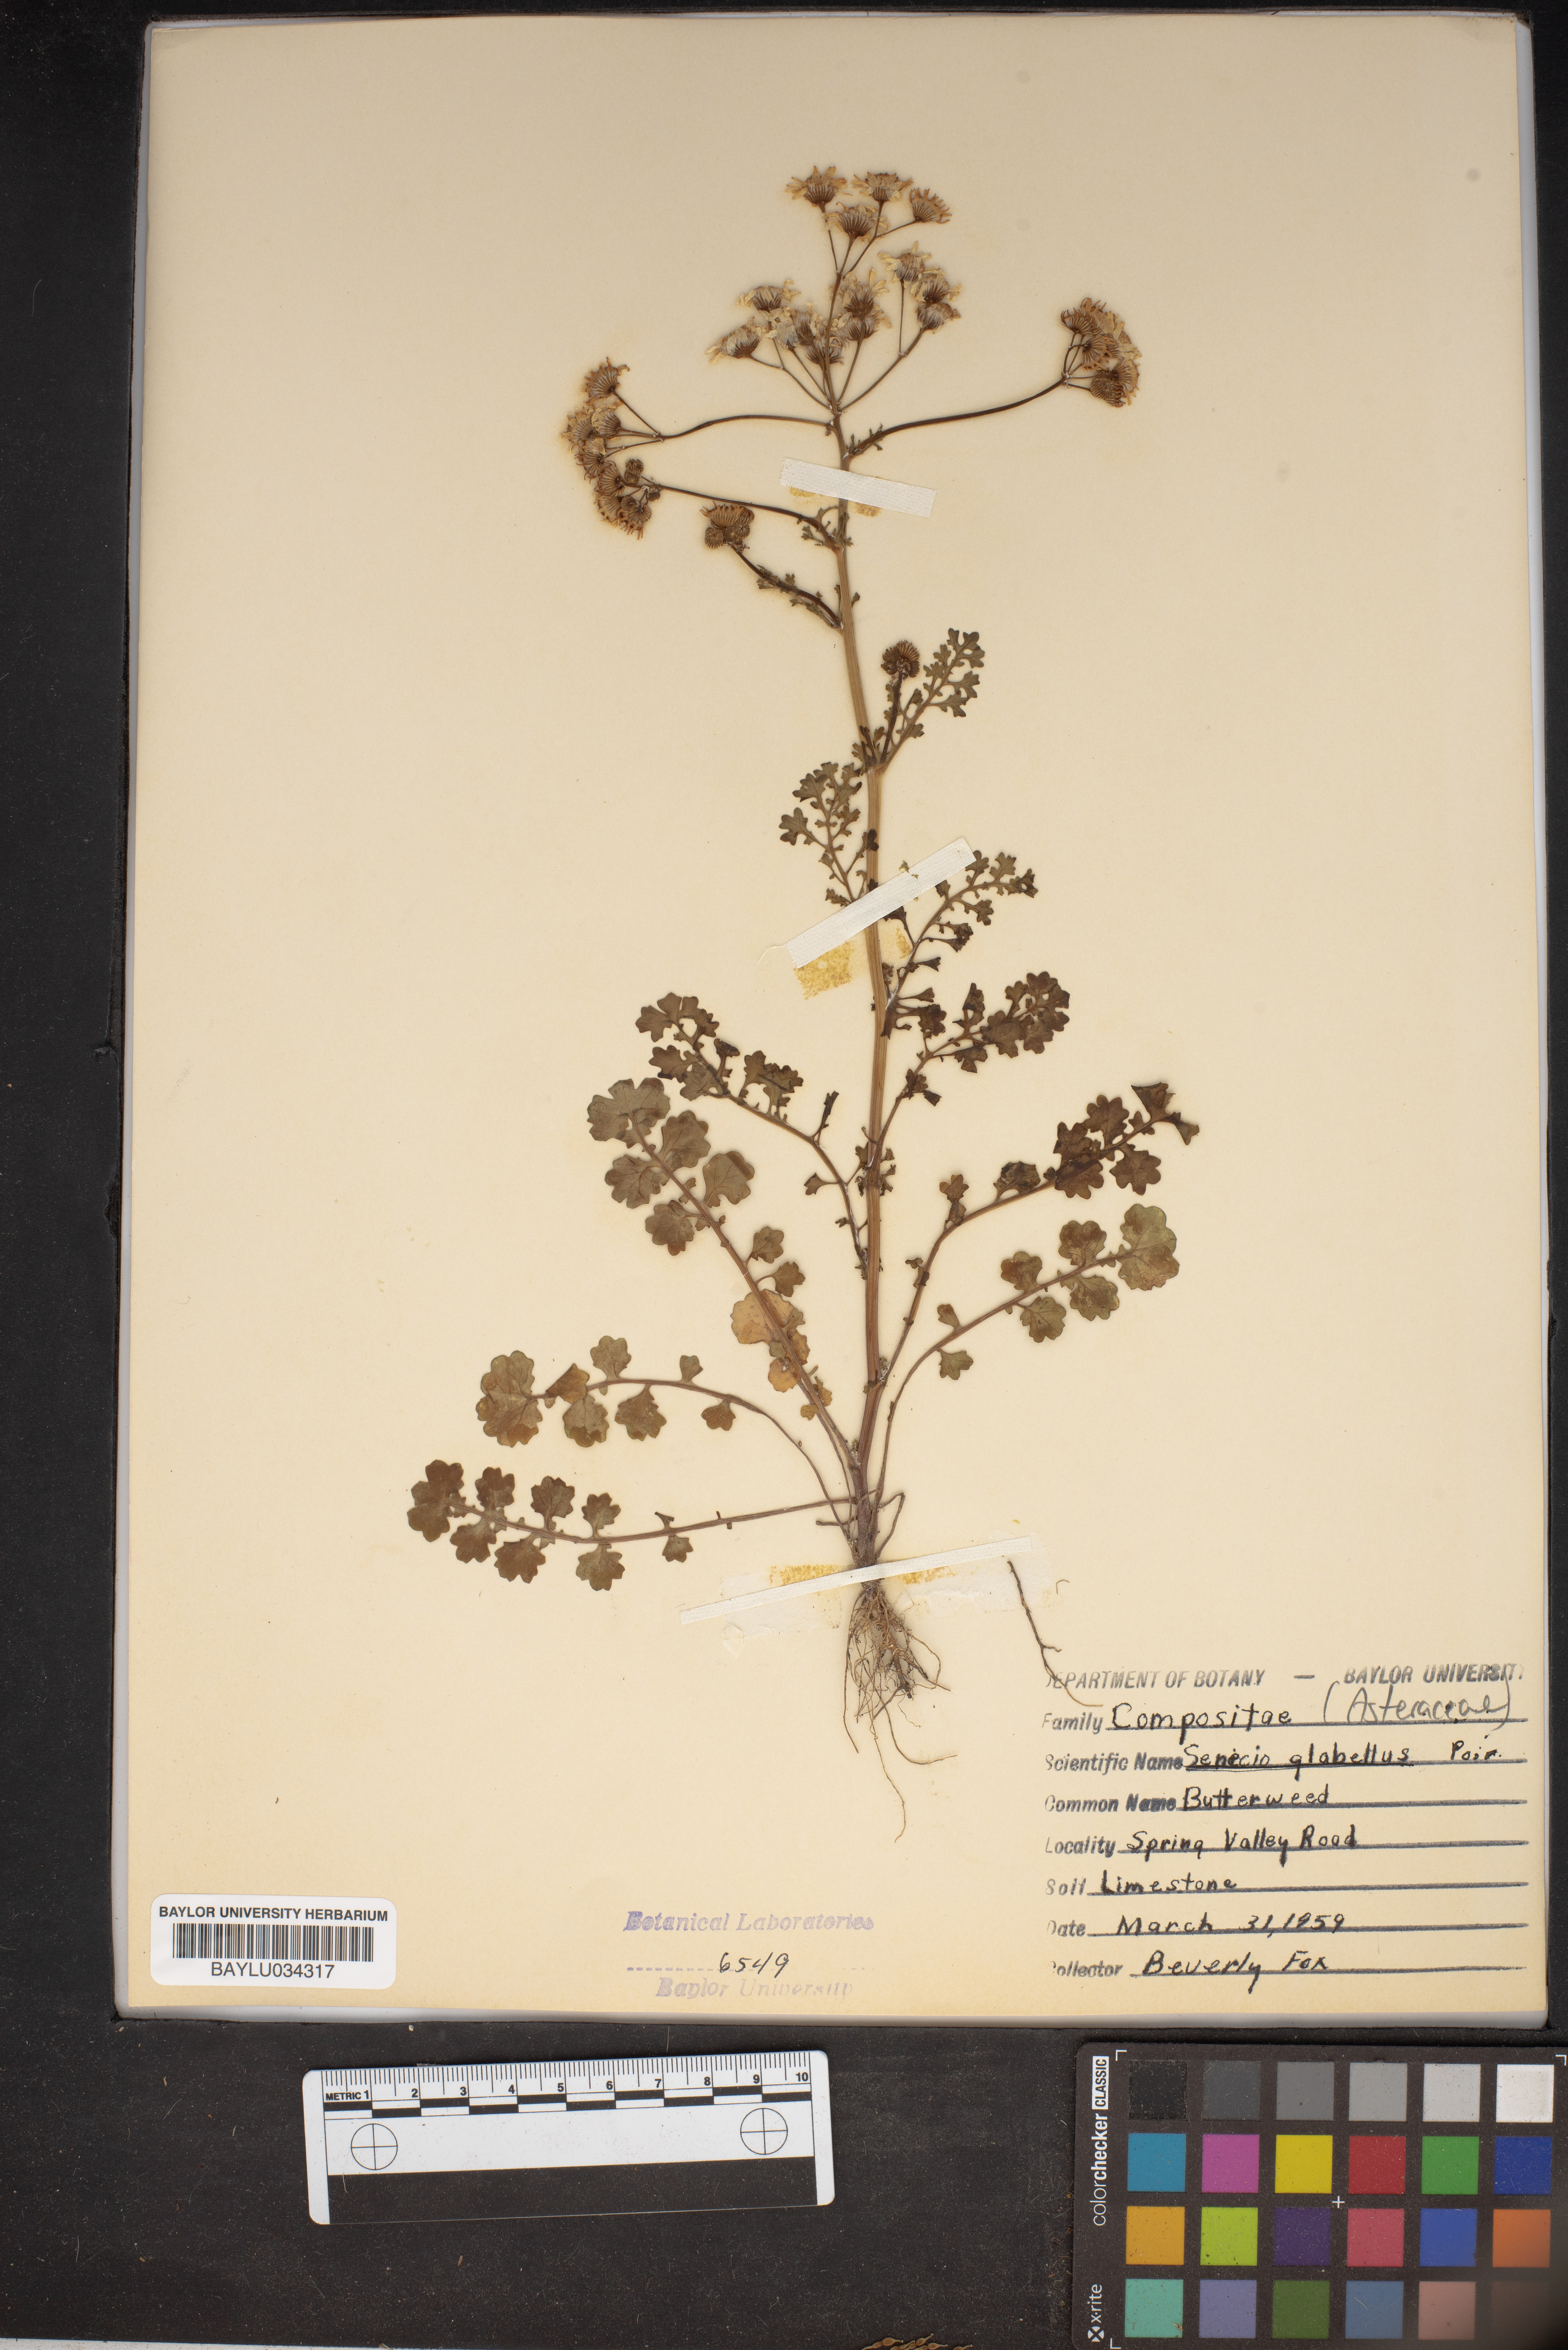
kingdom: Plantae
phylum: Tracheophyta
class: Magnoliopsida
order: Asterales
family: Asteraceae
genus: Tephroseris
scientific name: Tephroseris praticola
